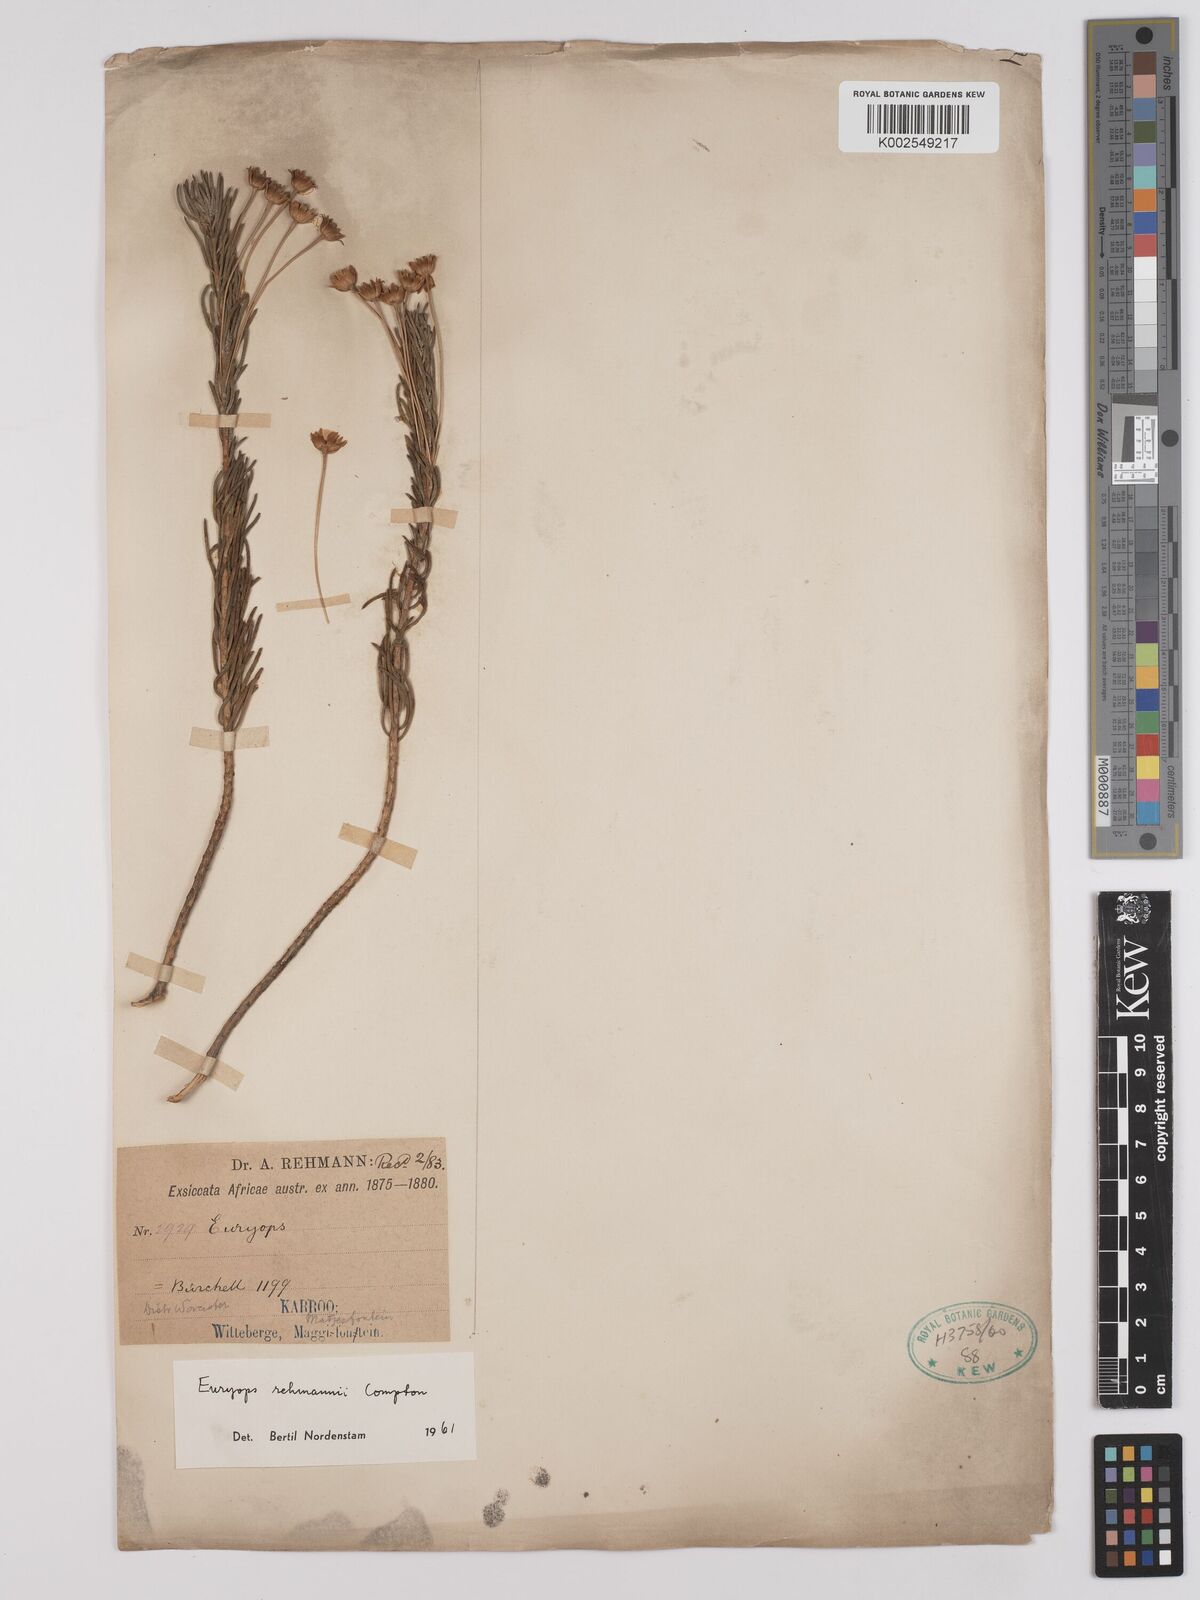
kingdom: Plantae
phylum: Tracheophyta
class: Magnoliopsida
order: Asterales
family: Asteraceae
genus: Euryops
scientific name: Euryops rehmannii
